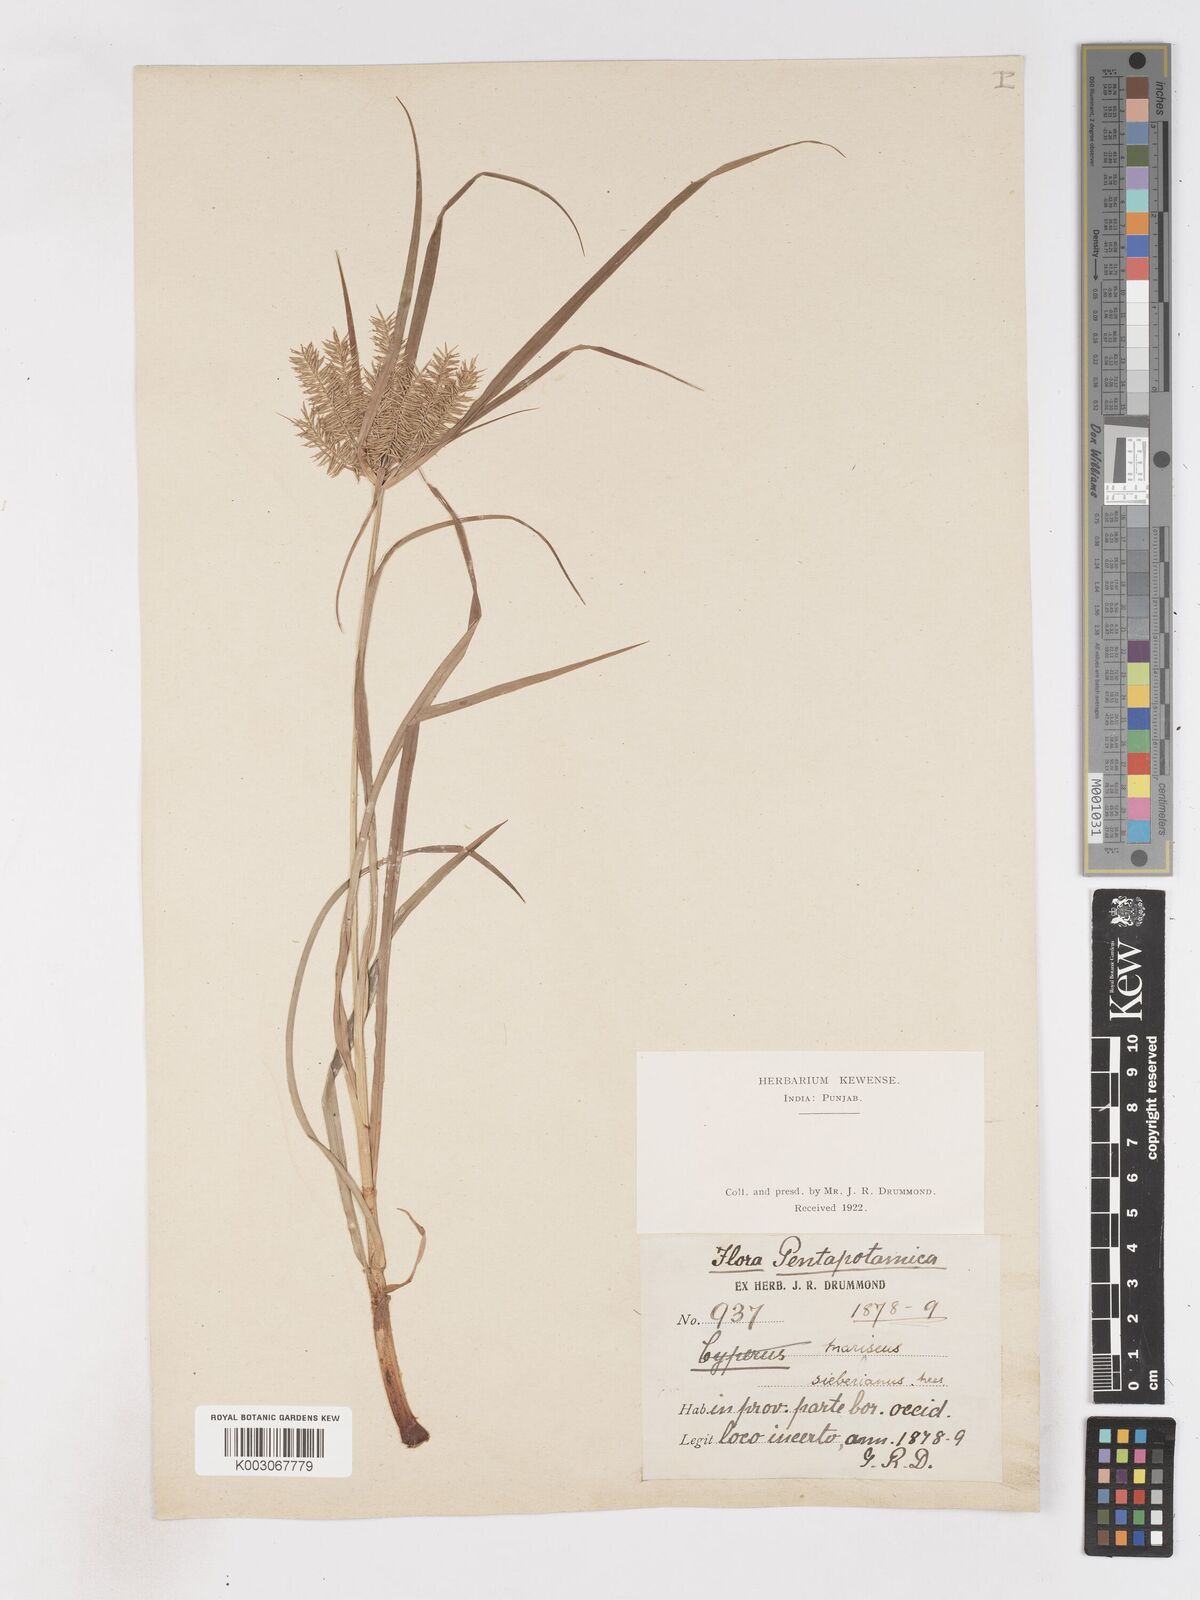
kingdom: Plantae
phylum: Tracheophyta
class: Liliopsida
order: Poales
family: Cyperaceae
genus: Cyperus
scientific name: Cyperus cyperoides
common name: Pacific island flat sedge
